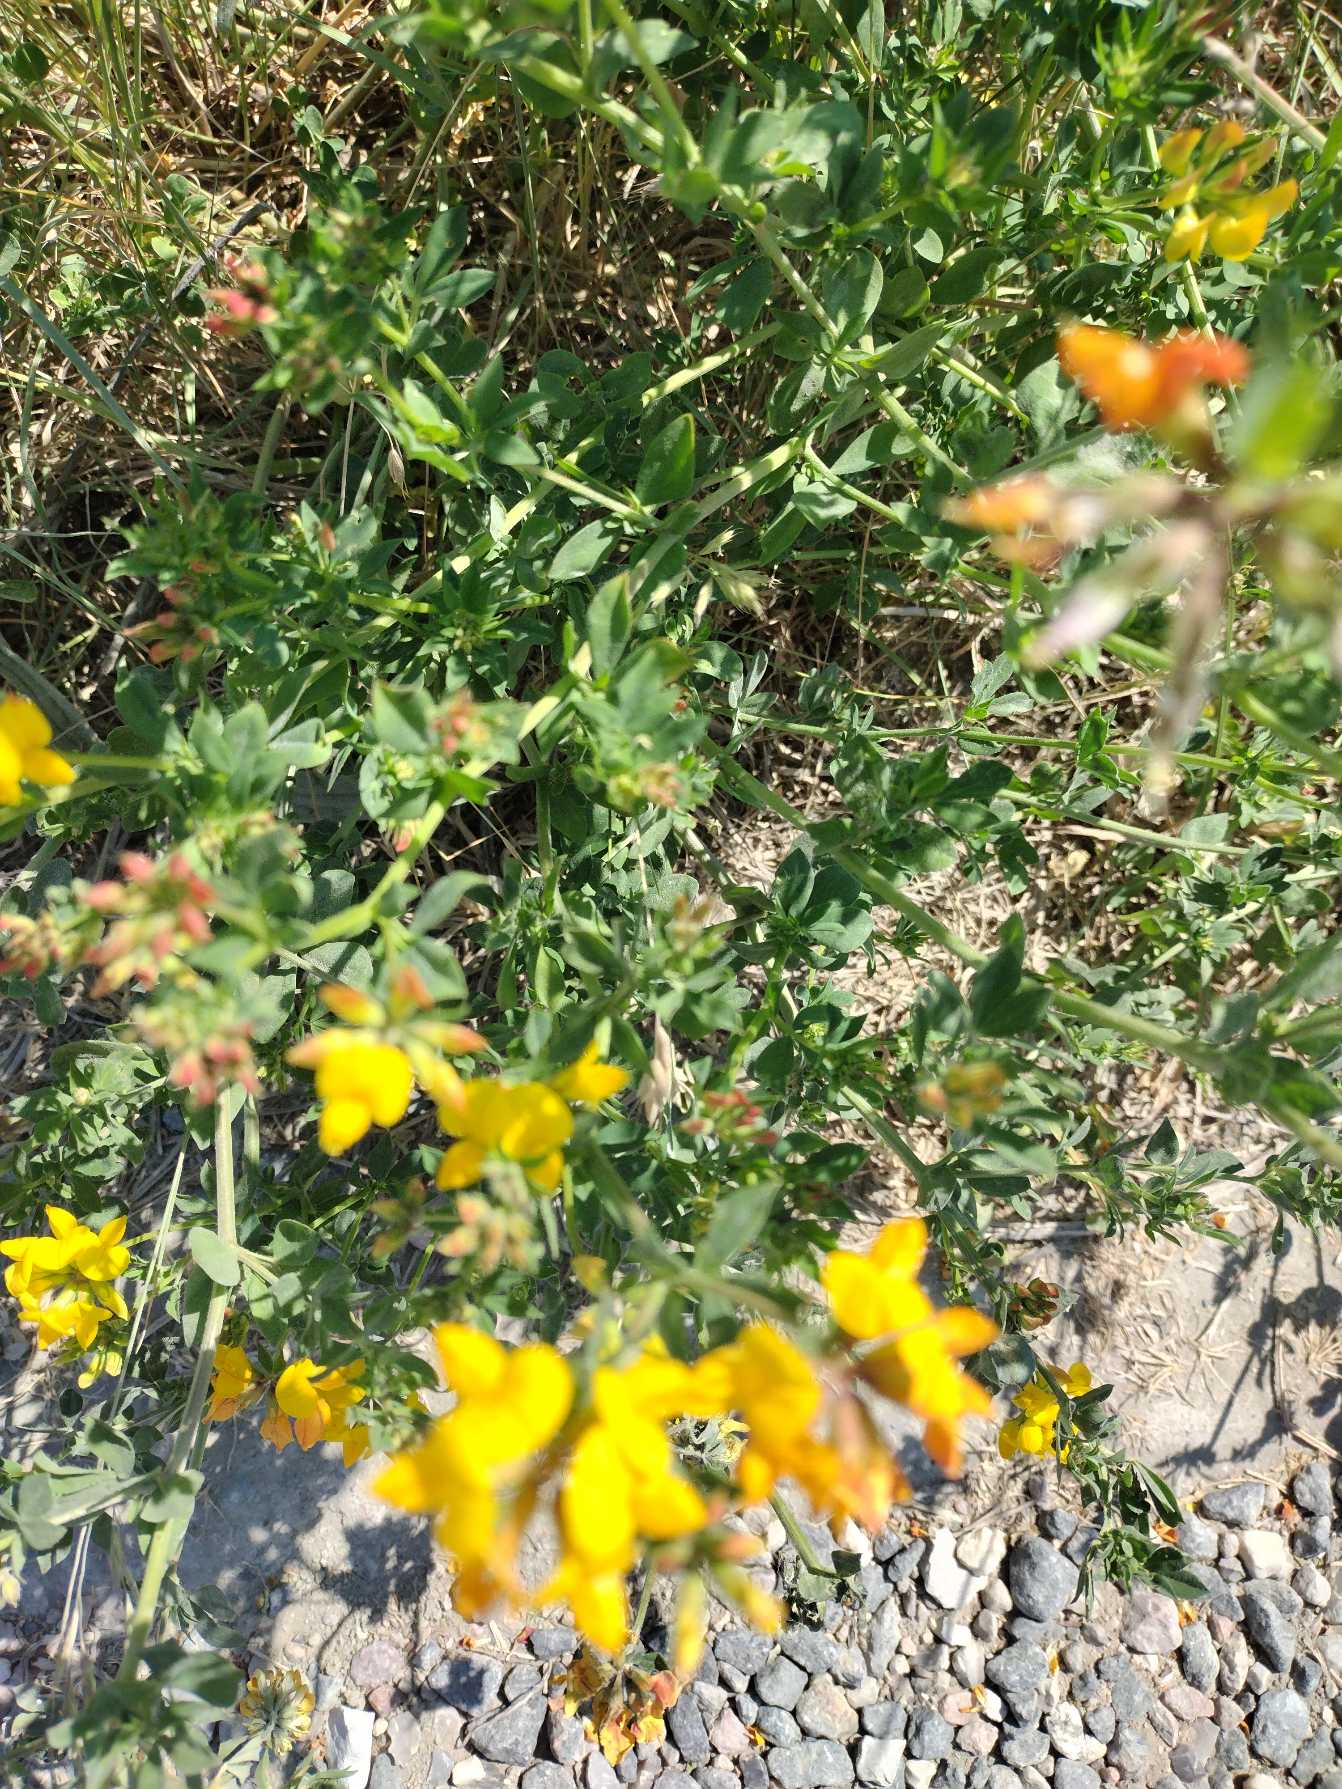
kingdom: Plantae
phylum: Tracheophyta
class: Magnoliopsida
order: Fabales
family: Fabaceae
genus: Lotus
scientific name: Lotus corniculatus
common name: Almindelig kællingetand
